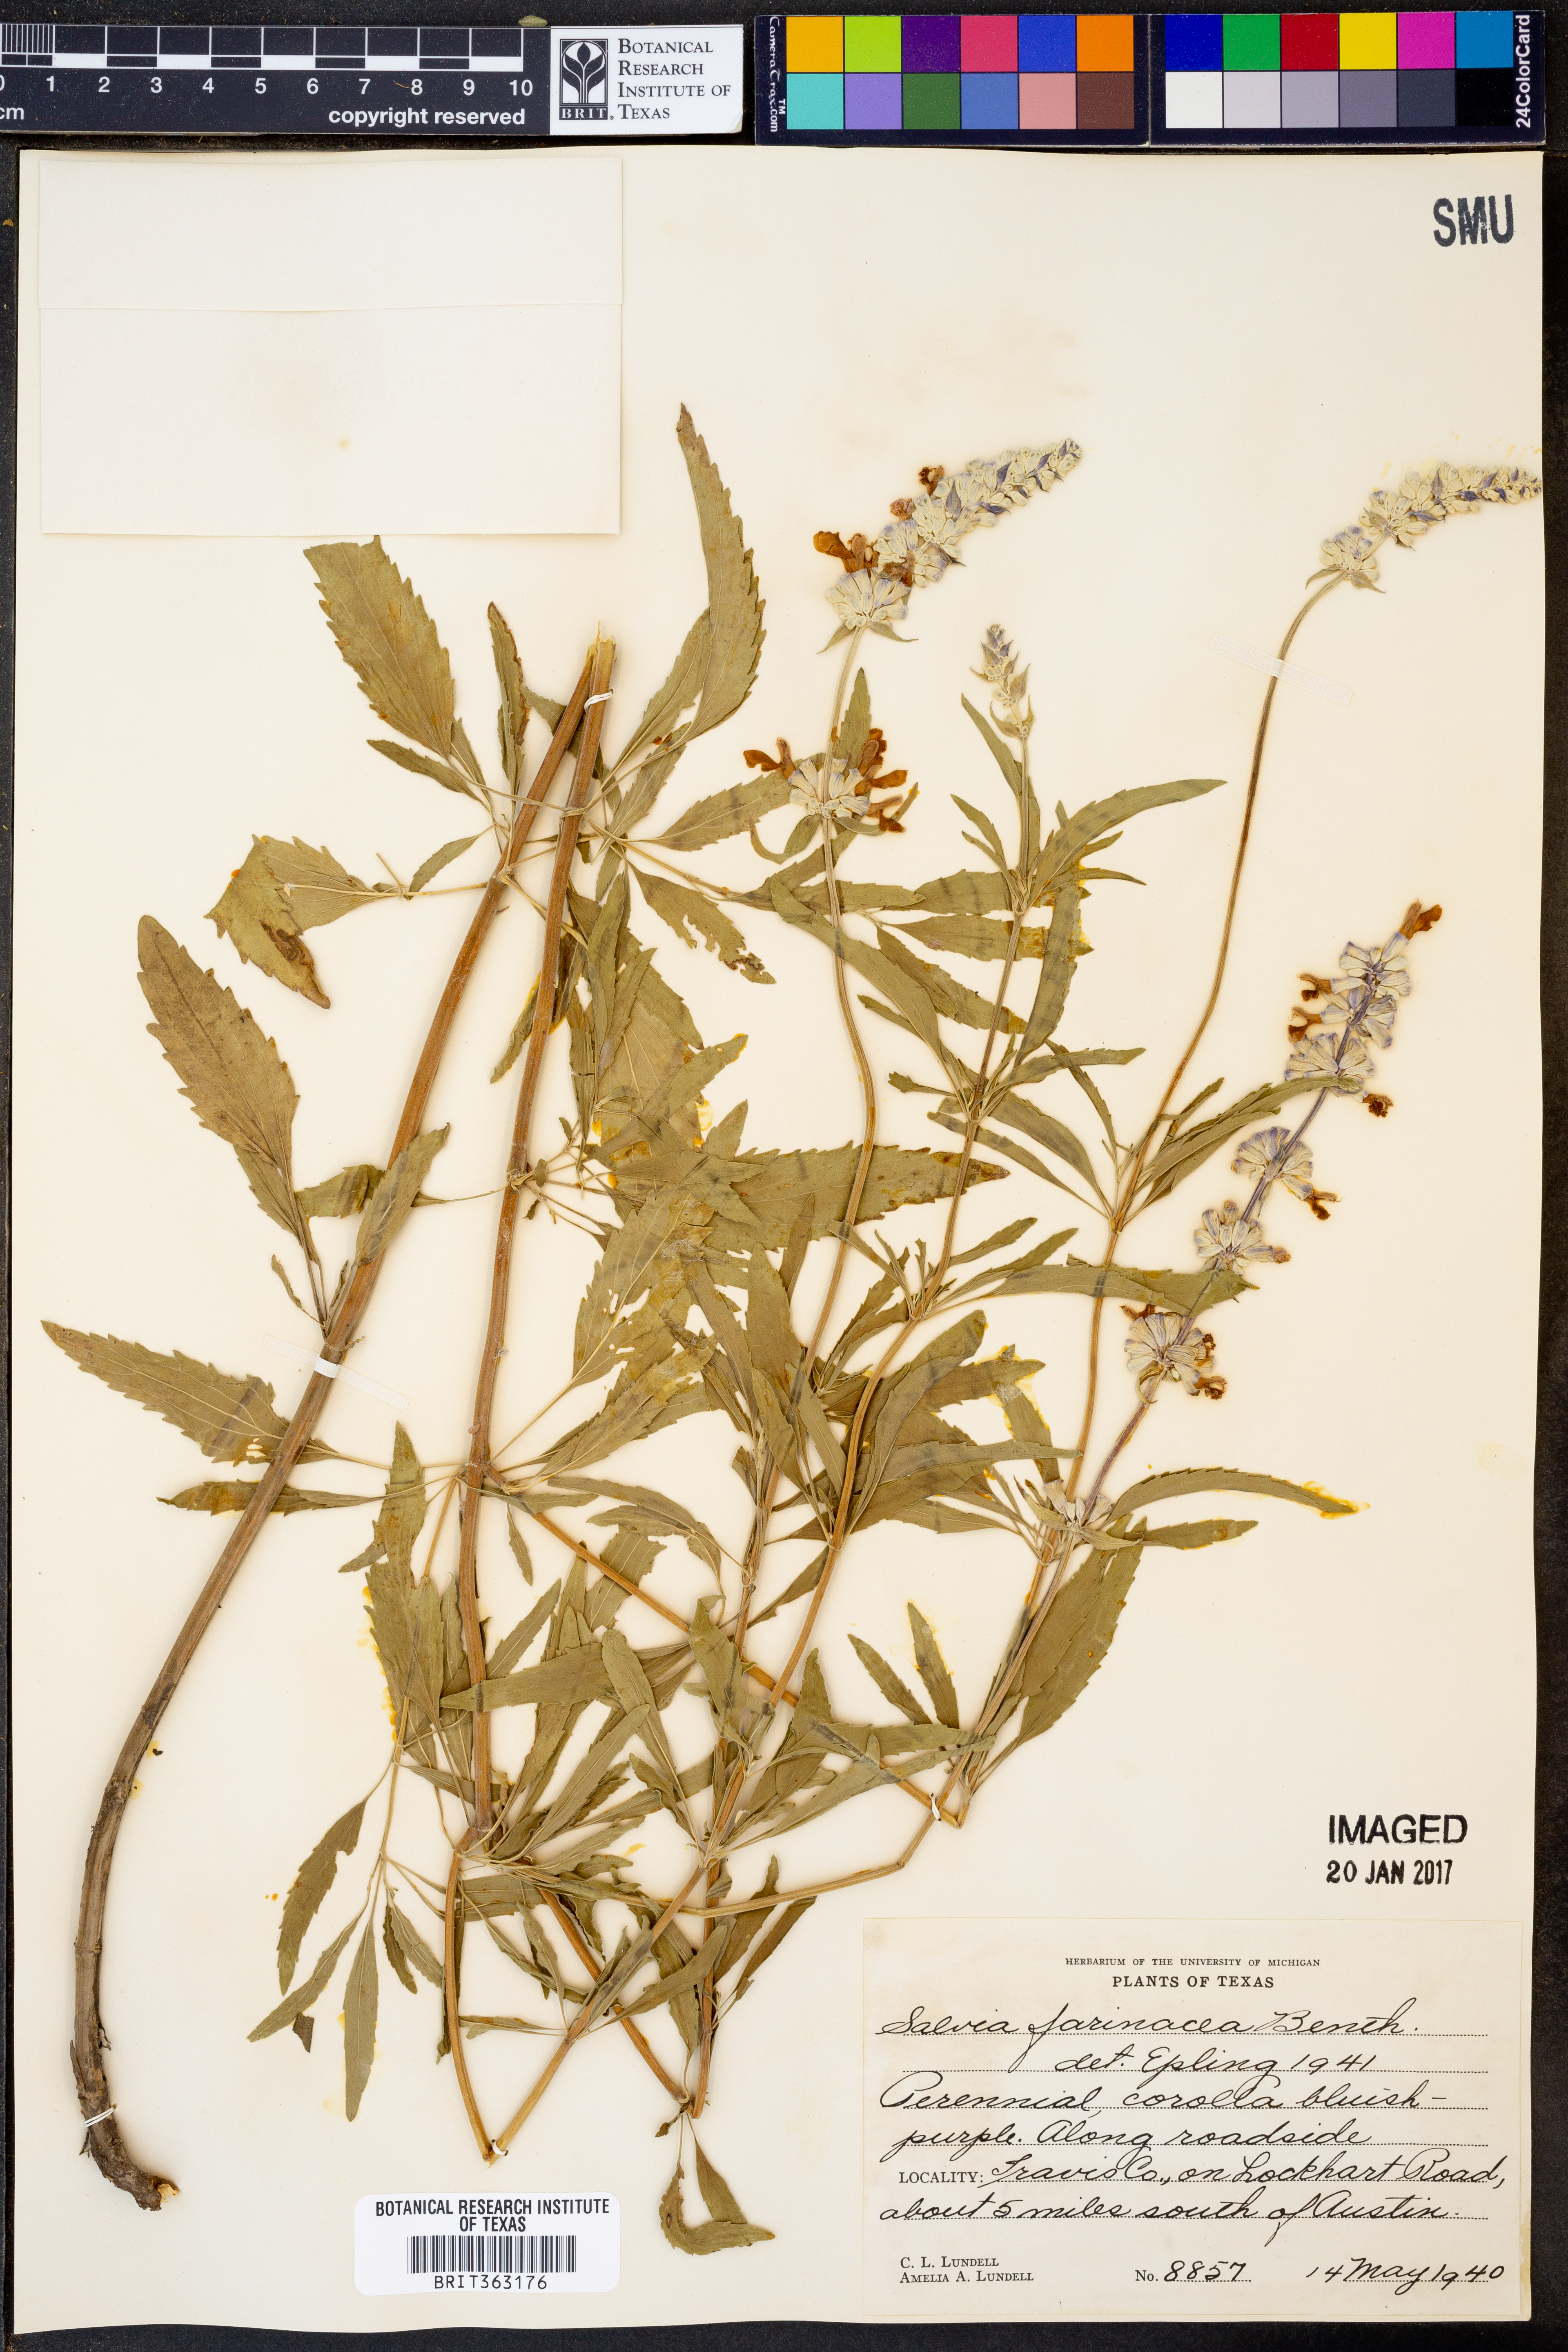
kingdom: Plantae
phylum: Tracheophyta
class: Magnoliopsida
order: Lamiales
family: Lamiaceae
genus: Salvia
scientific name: Salvia farinacea
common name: Mealy sage
